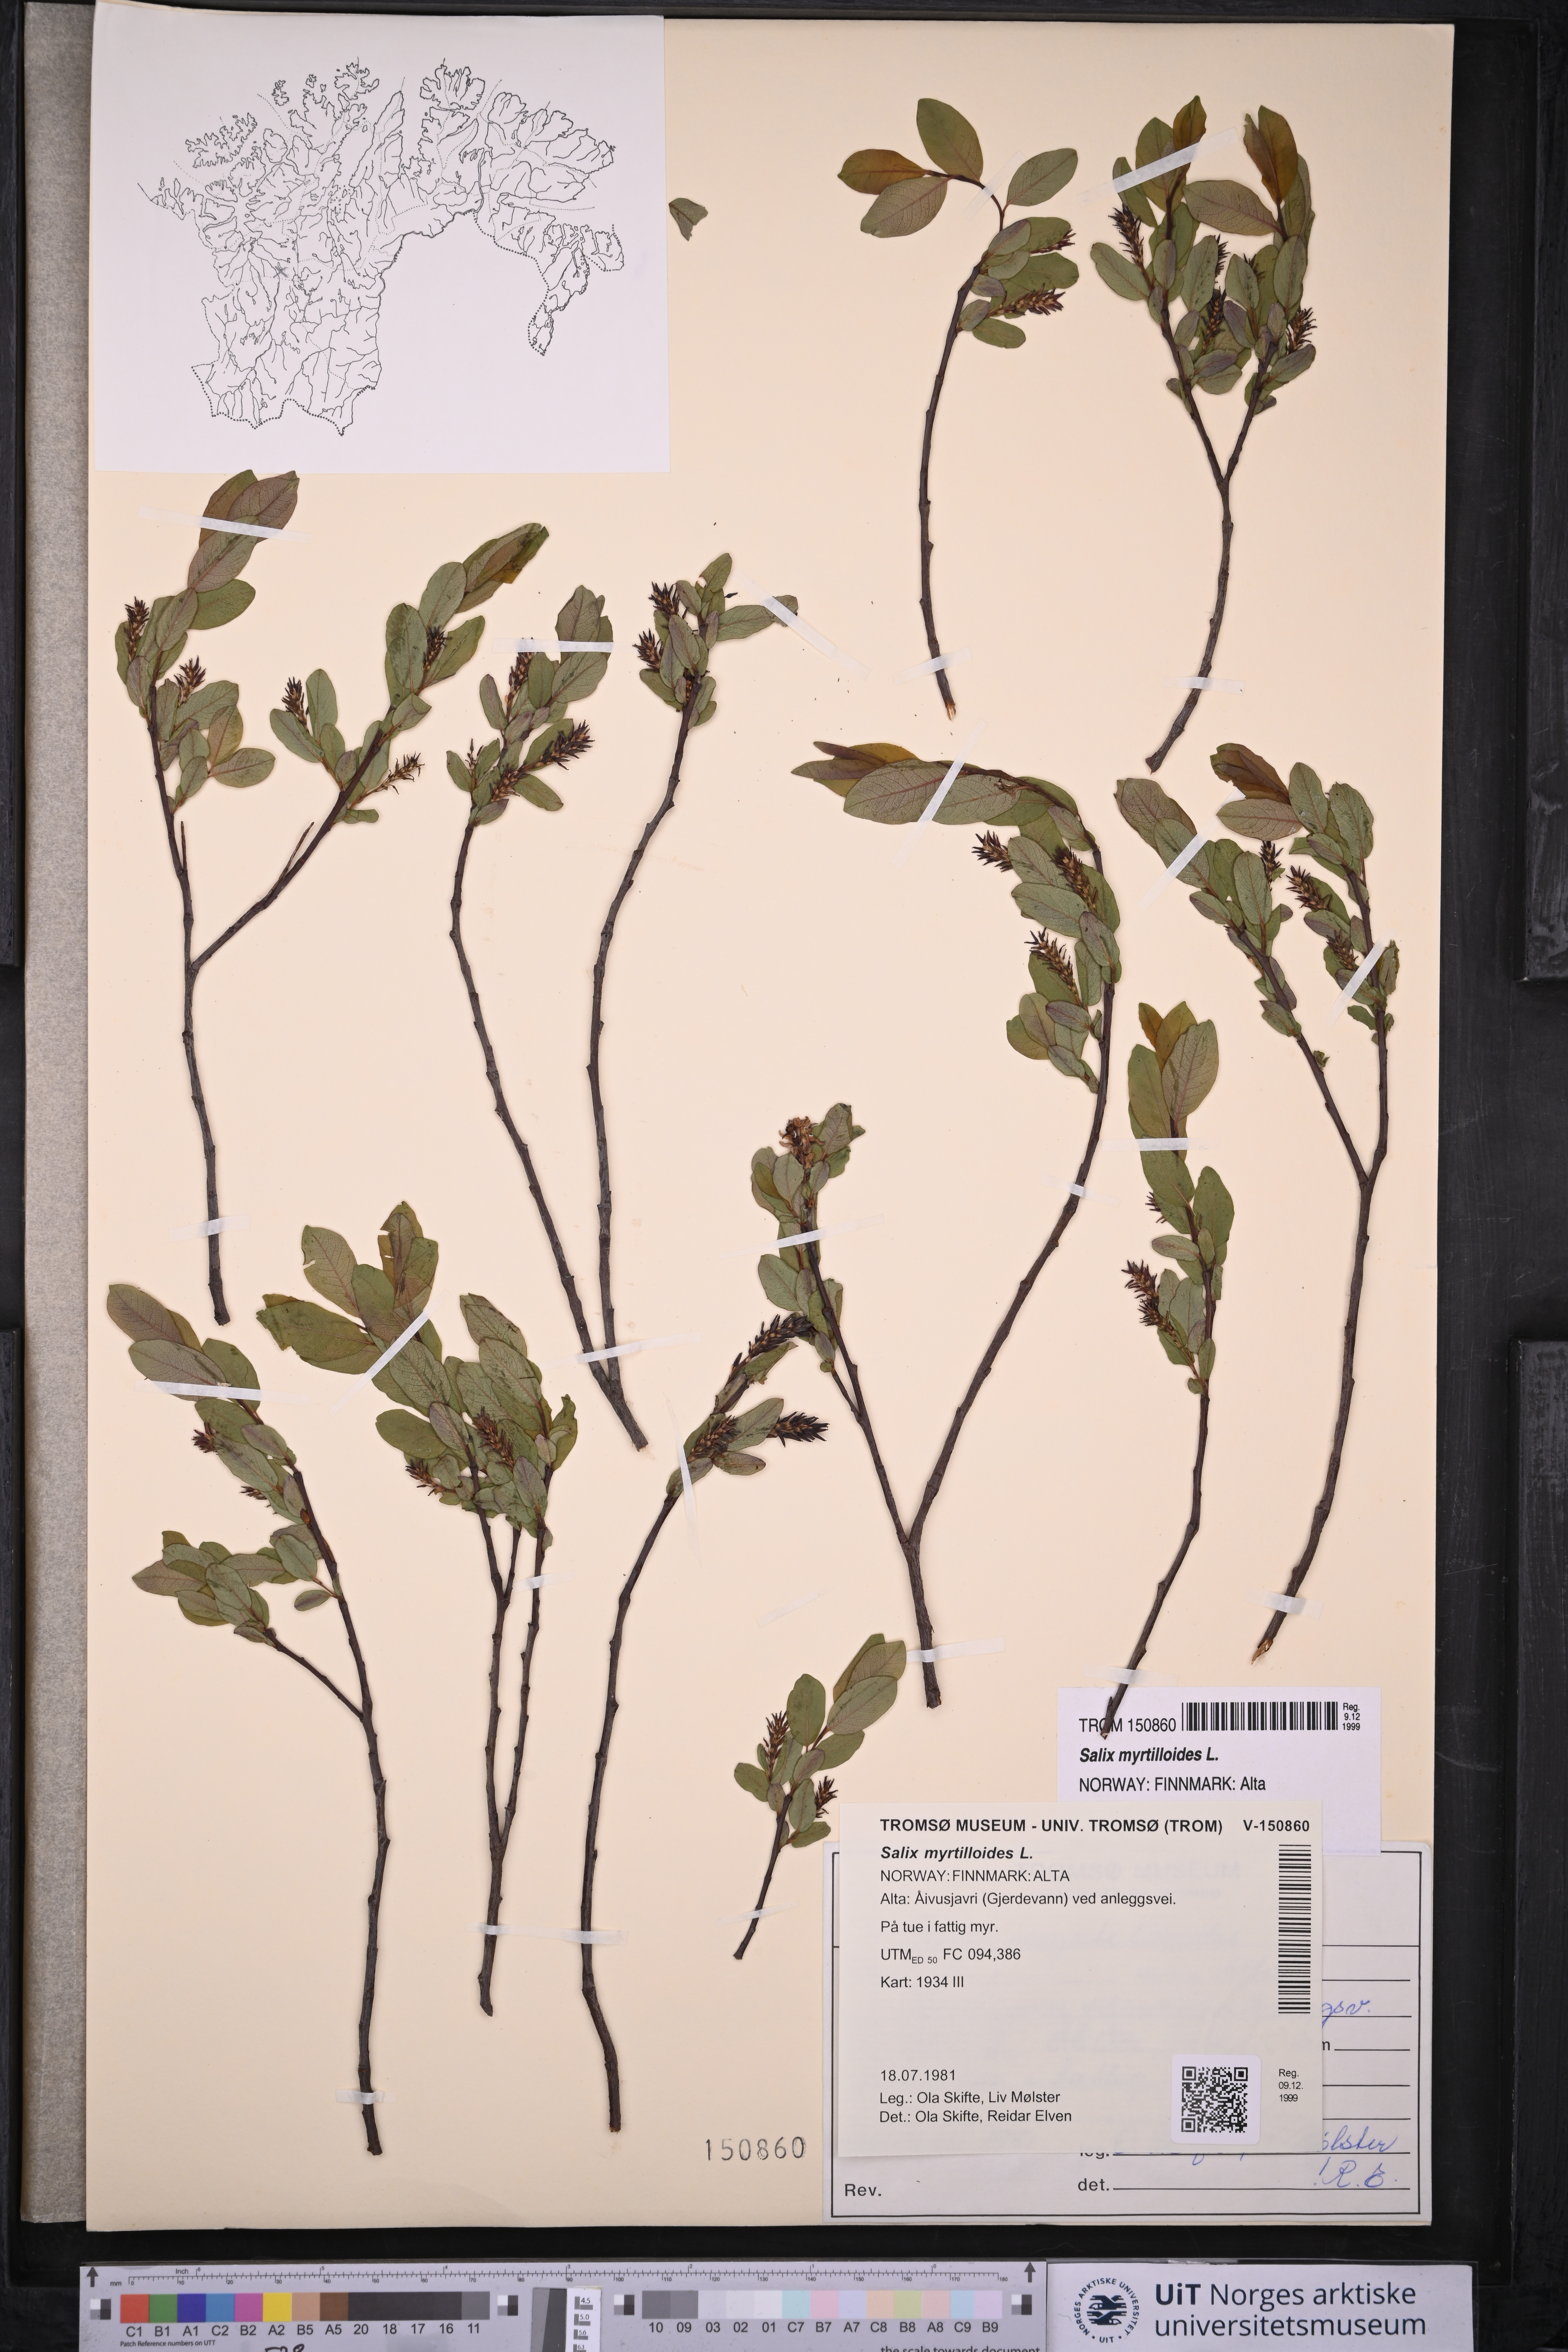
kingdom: Plantae
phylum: Tracheophyta
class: Magnoliopsida
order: Malpighiales
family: Salicaceae
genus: Salix
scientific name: Salix myrtilloides
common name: Myrtle-leaved willow
